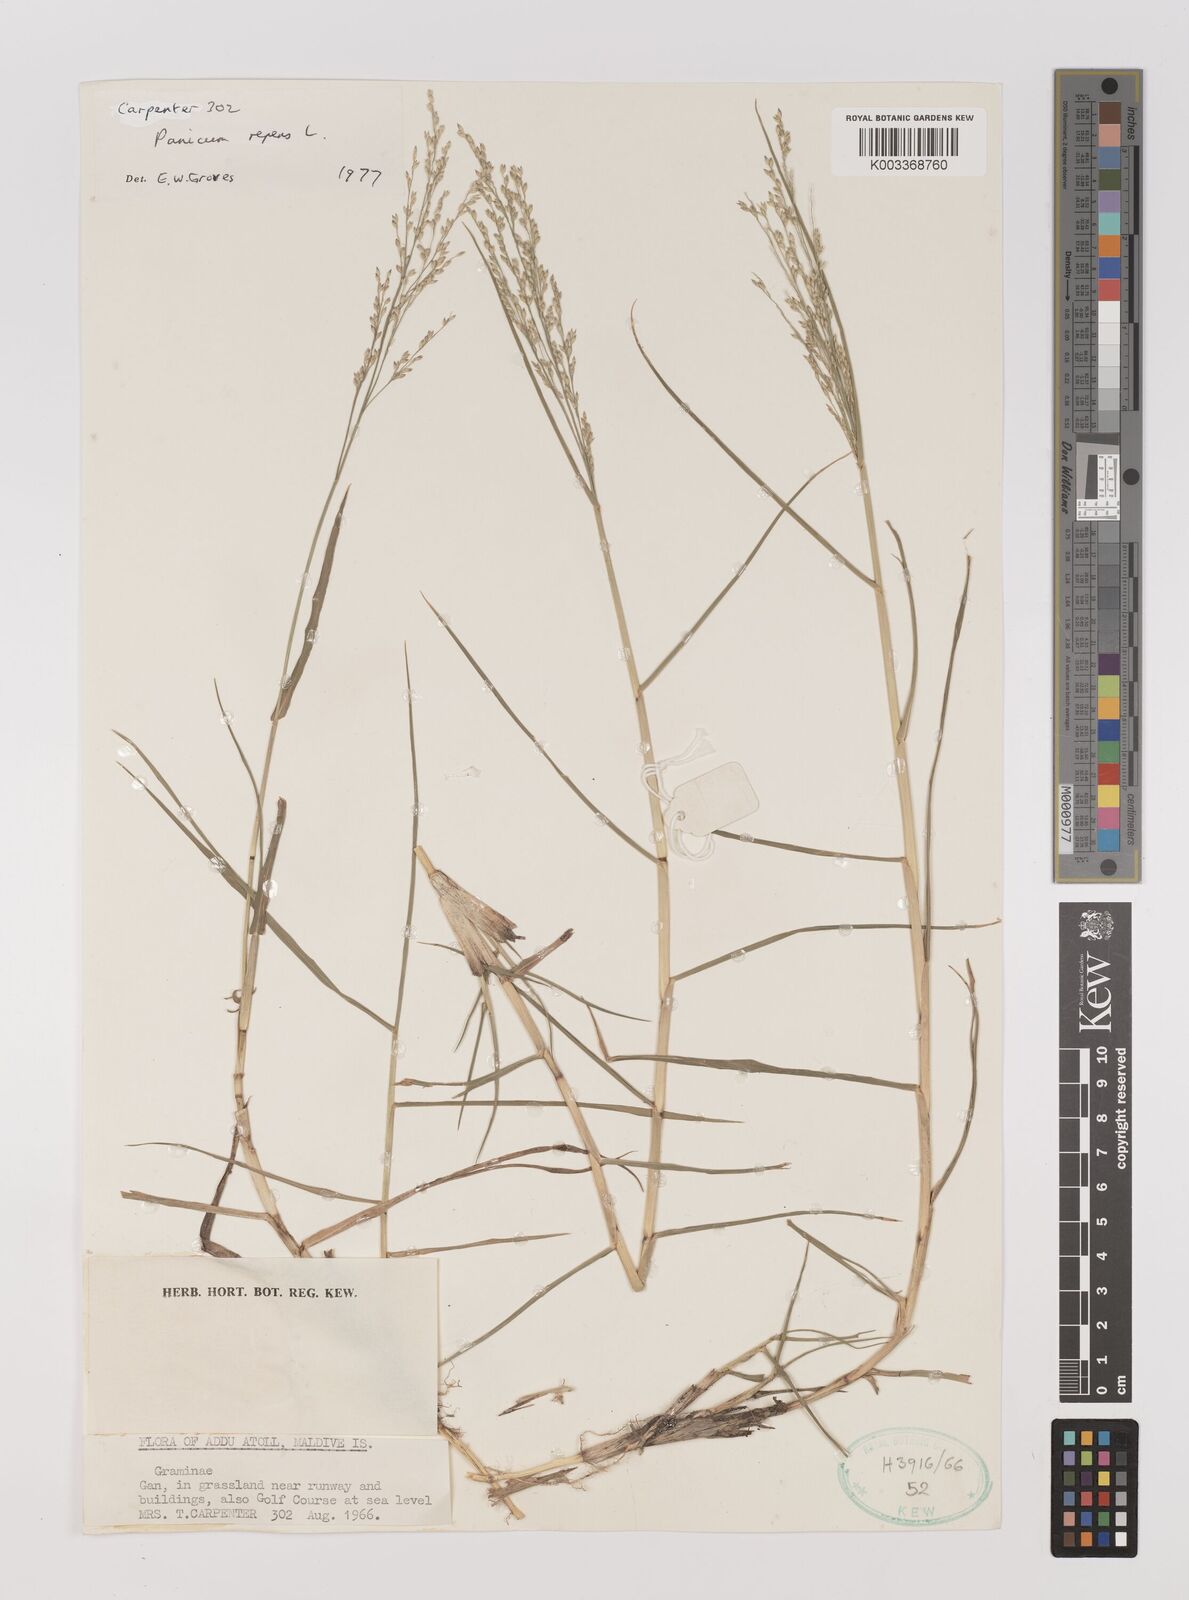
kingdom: Plantae
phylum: Tracheophyta
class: Liliopsida
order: Poales
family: Poaceae
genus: Panicum
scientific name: Panicum repens
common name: Torpedo grass
